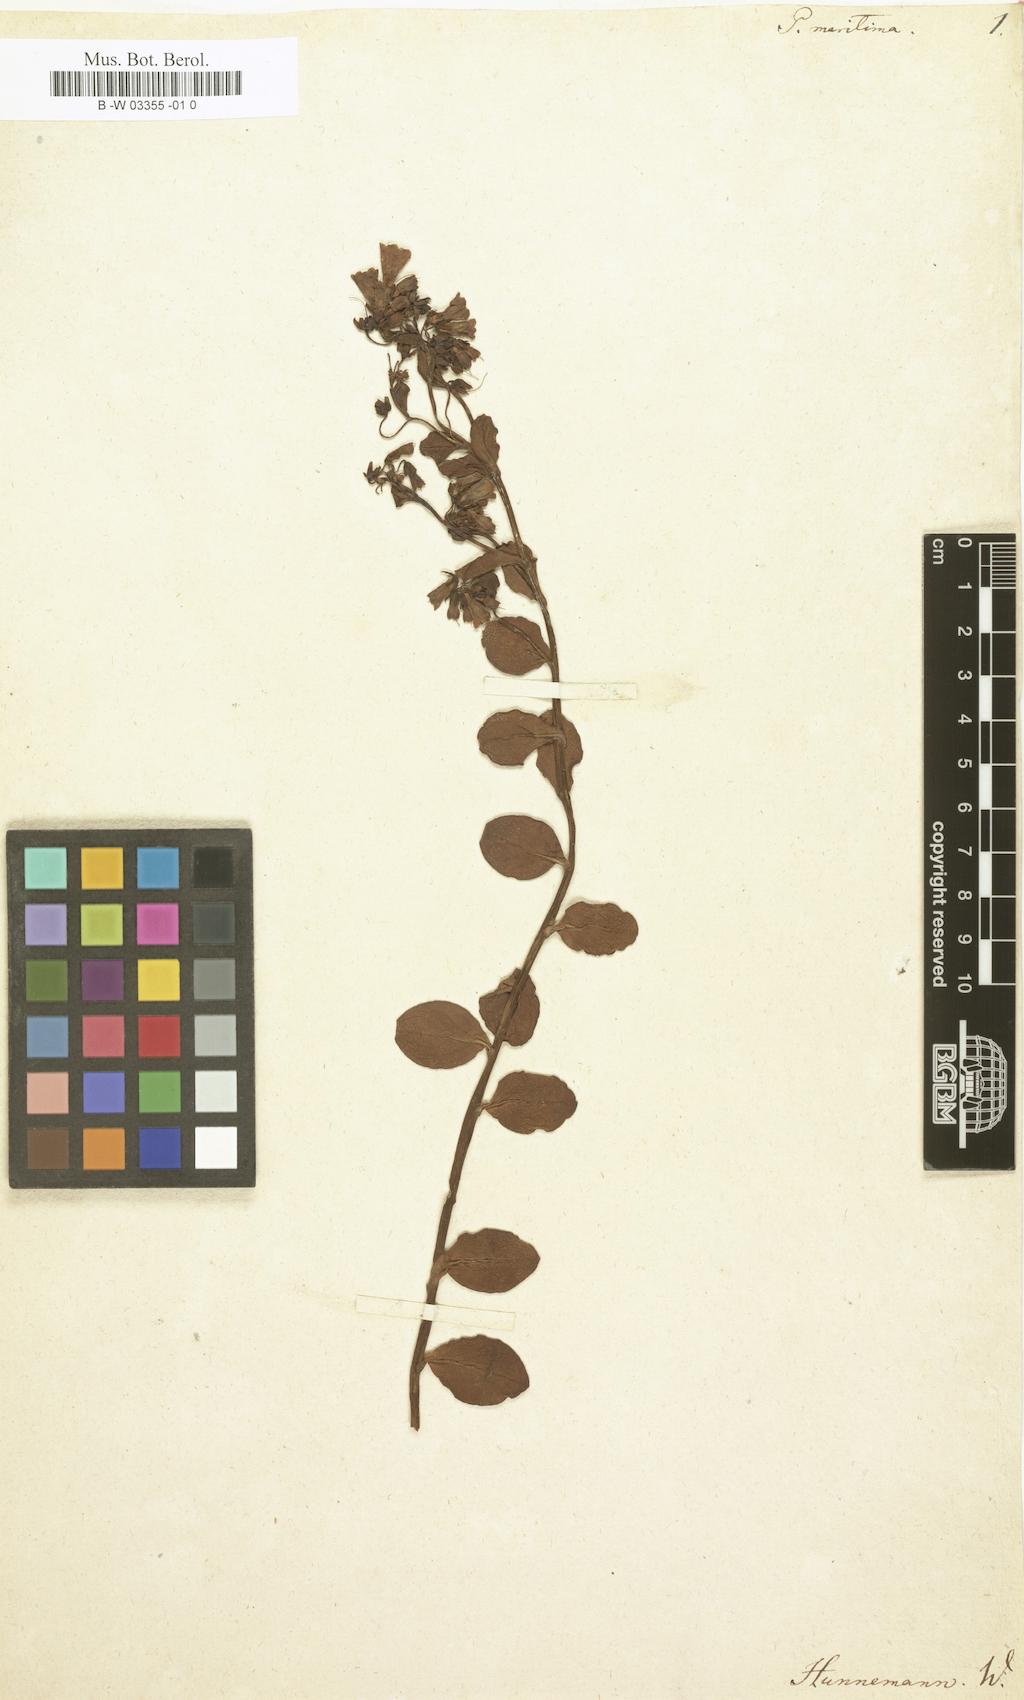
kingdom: Plantae
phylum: Tracheophyta
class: Magnoliopsida
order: Boraginales
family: Boraginaceae
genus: Mertensia
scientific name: Mertensia maritima
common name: Oysterplant
